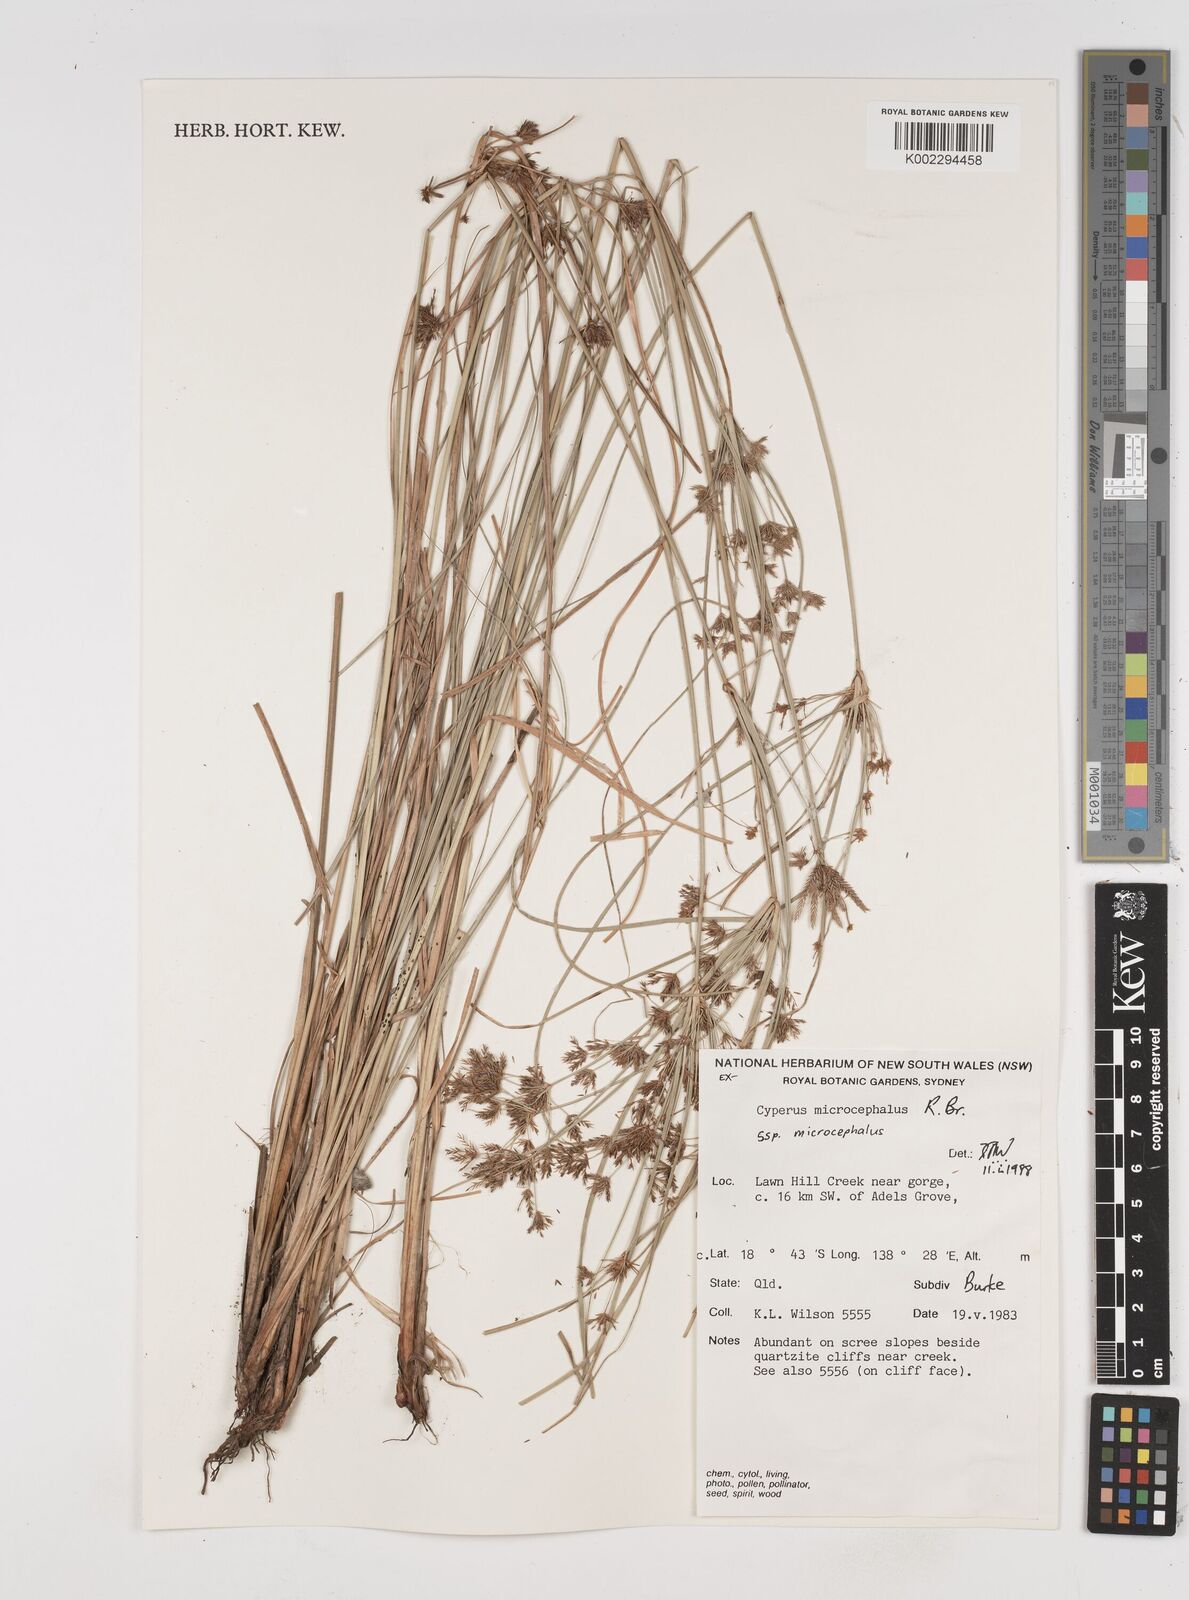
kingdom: Plantae
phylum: Tracheophyta
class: Liliopsida
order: Poales
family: Cyperaceae
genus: Cyperus
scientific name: Cyperus microcephalus
